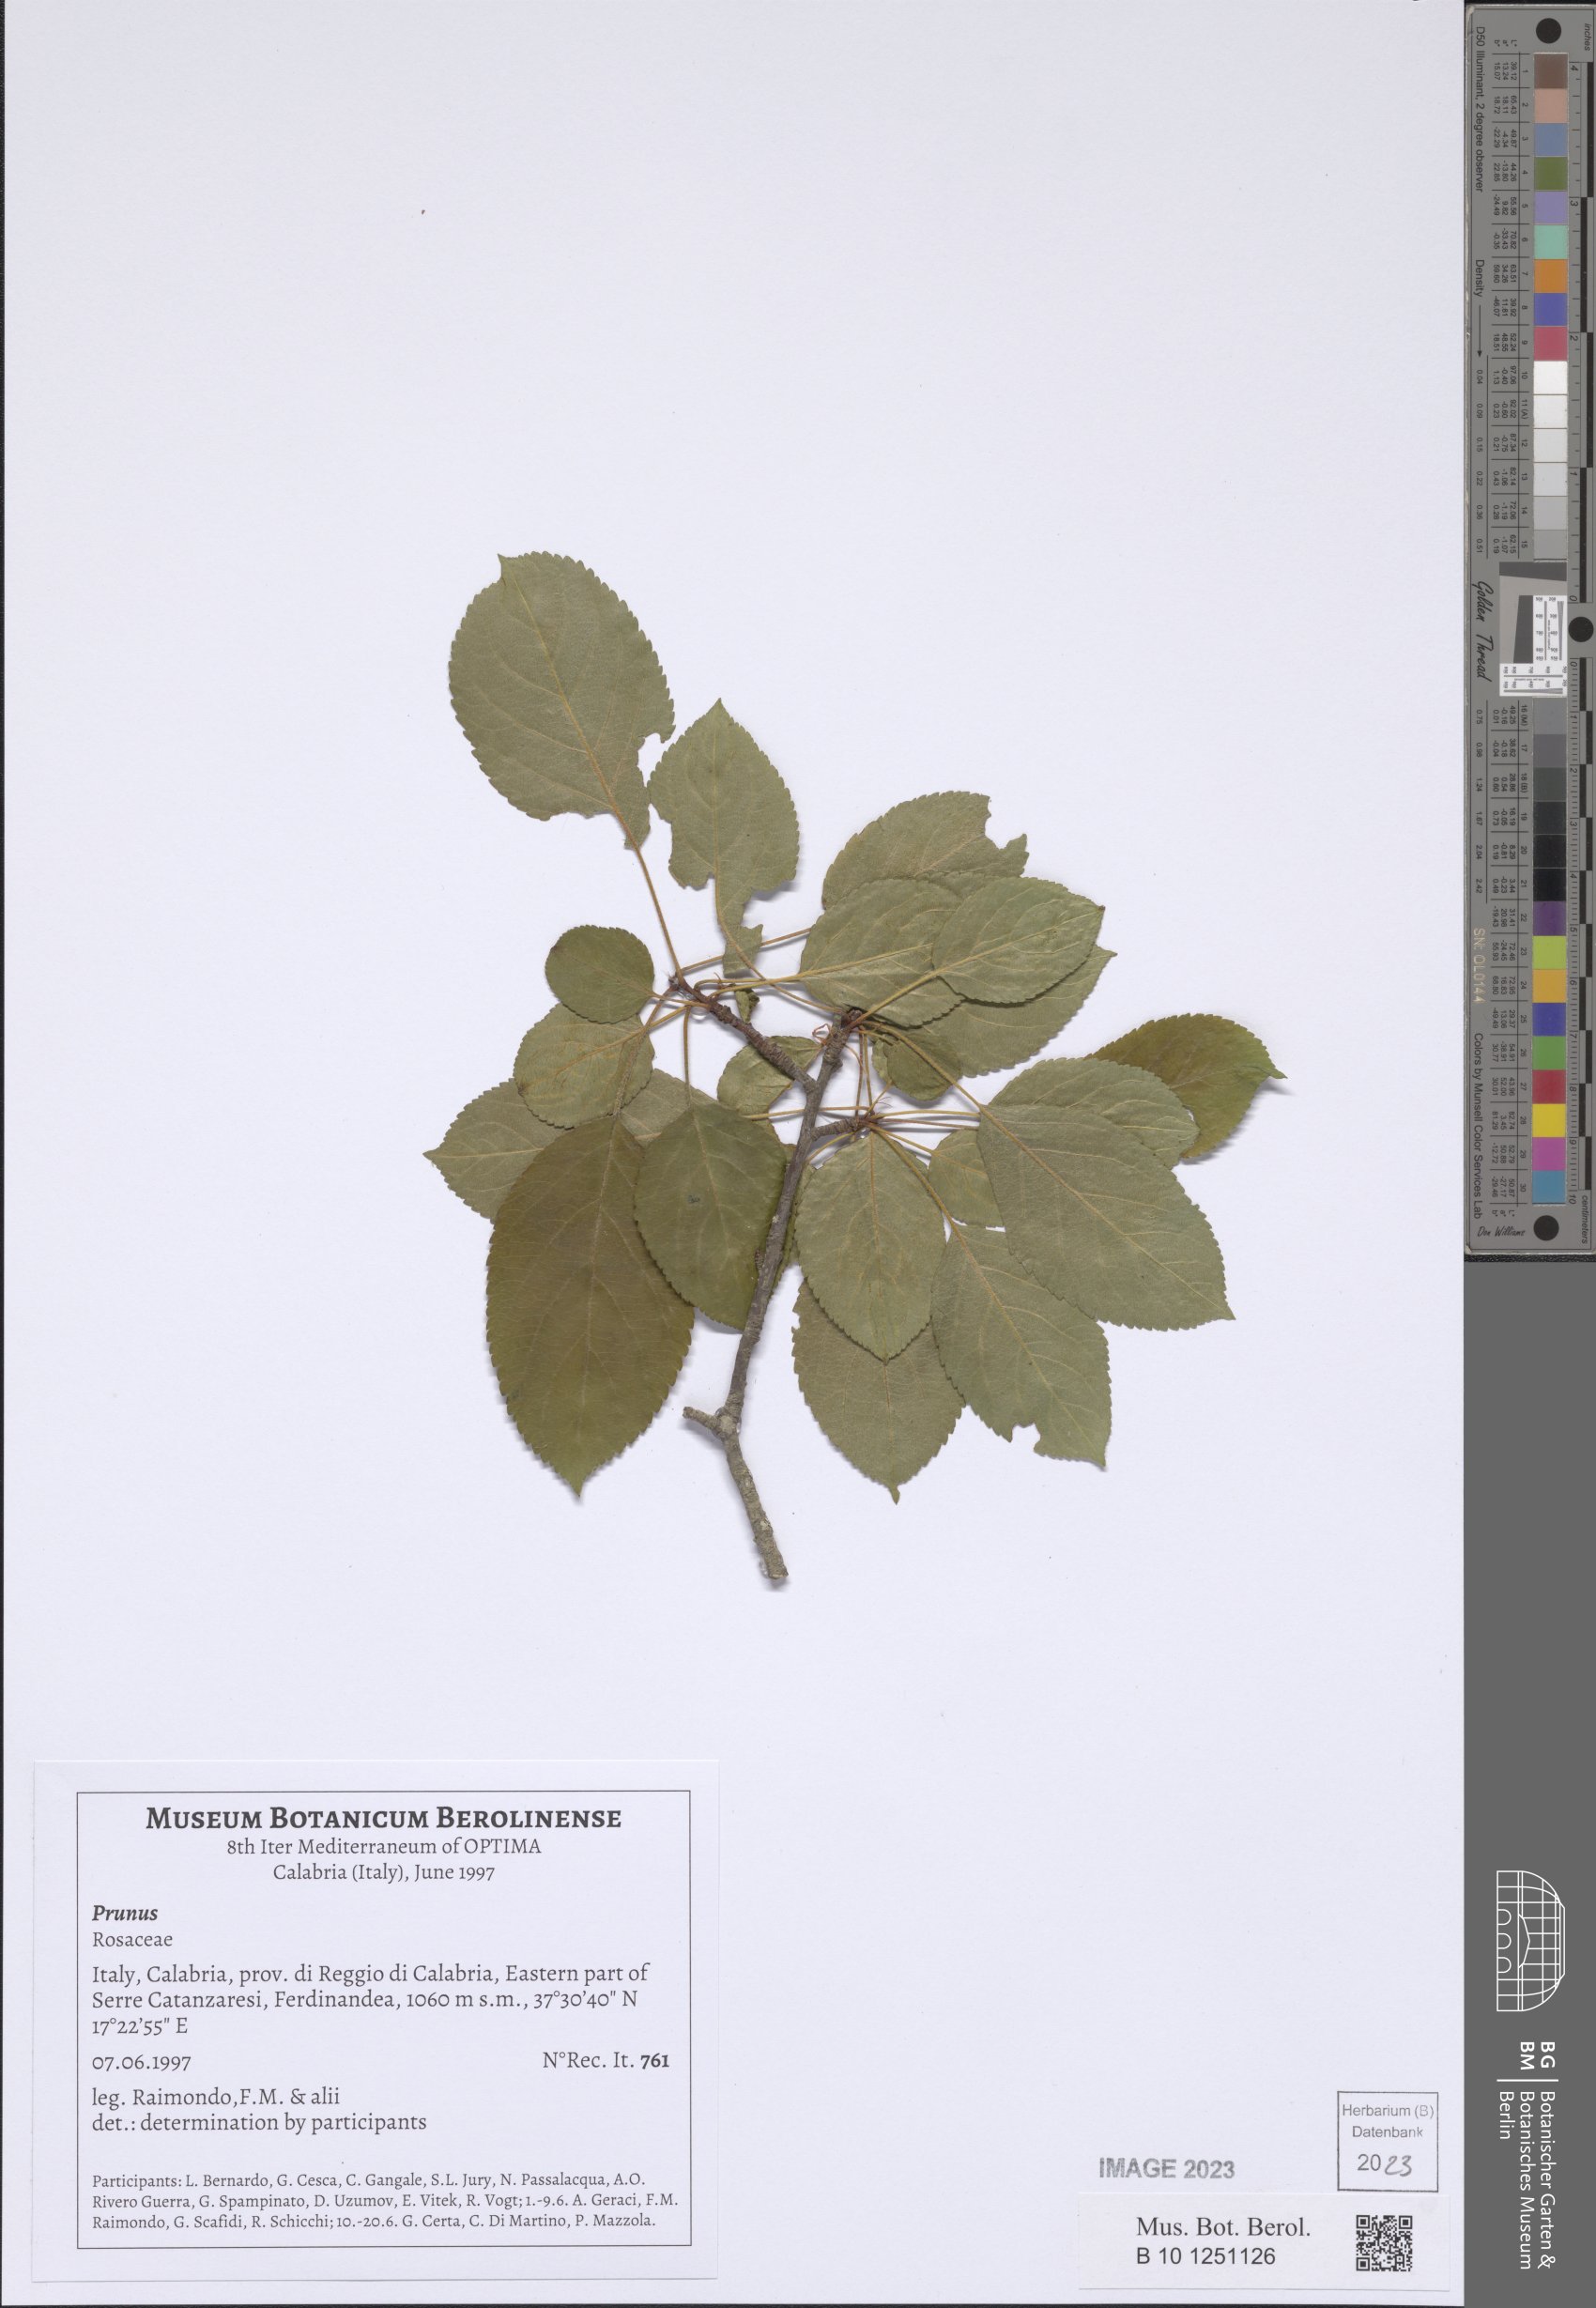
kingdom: Plantae
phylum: Tracheophyta
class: Magnoliopsida
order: Rosales
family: Rosaceae
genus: Prunus
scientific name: Prunus
